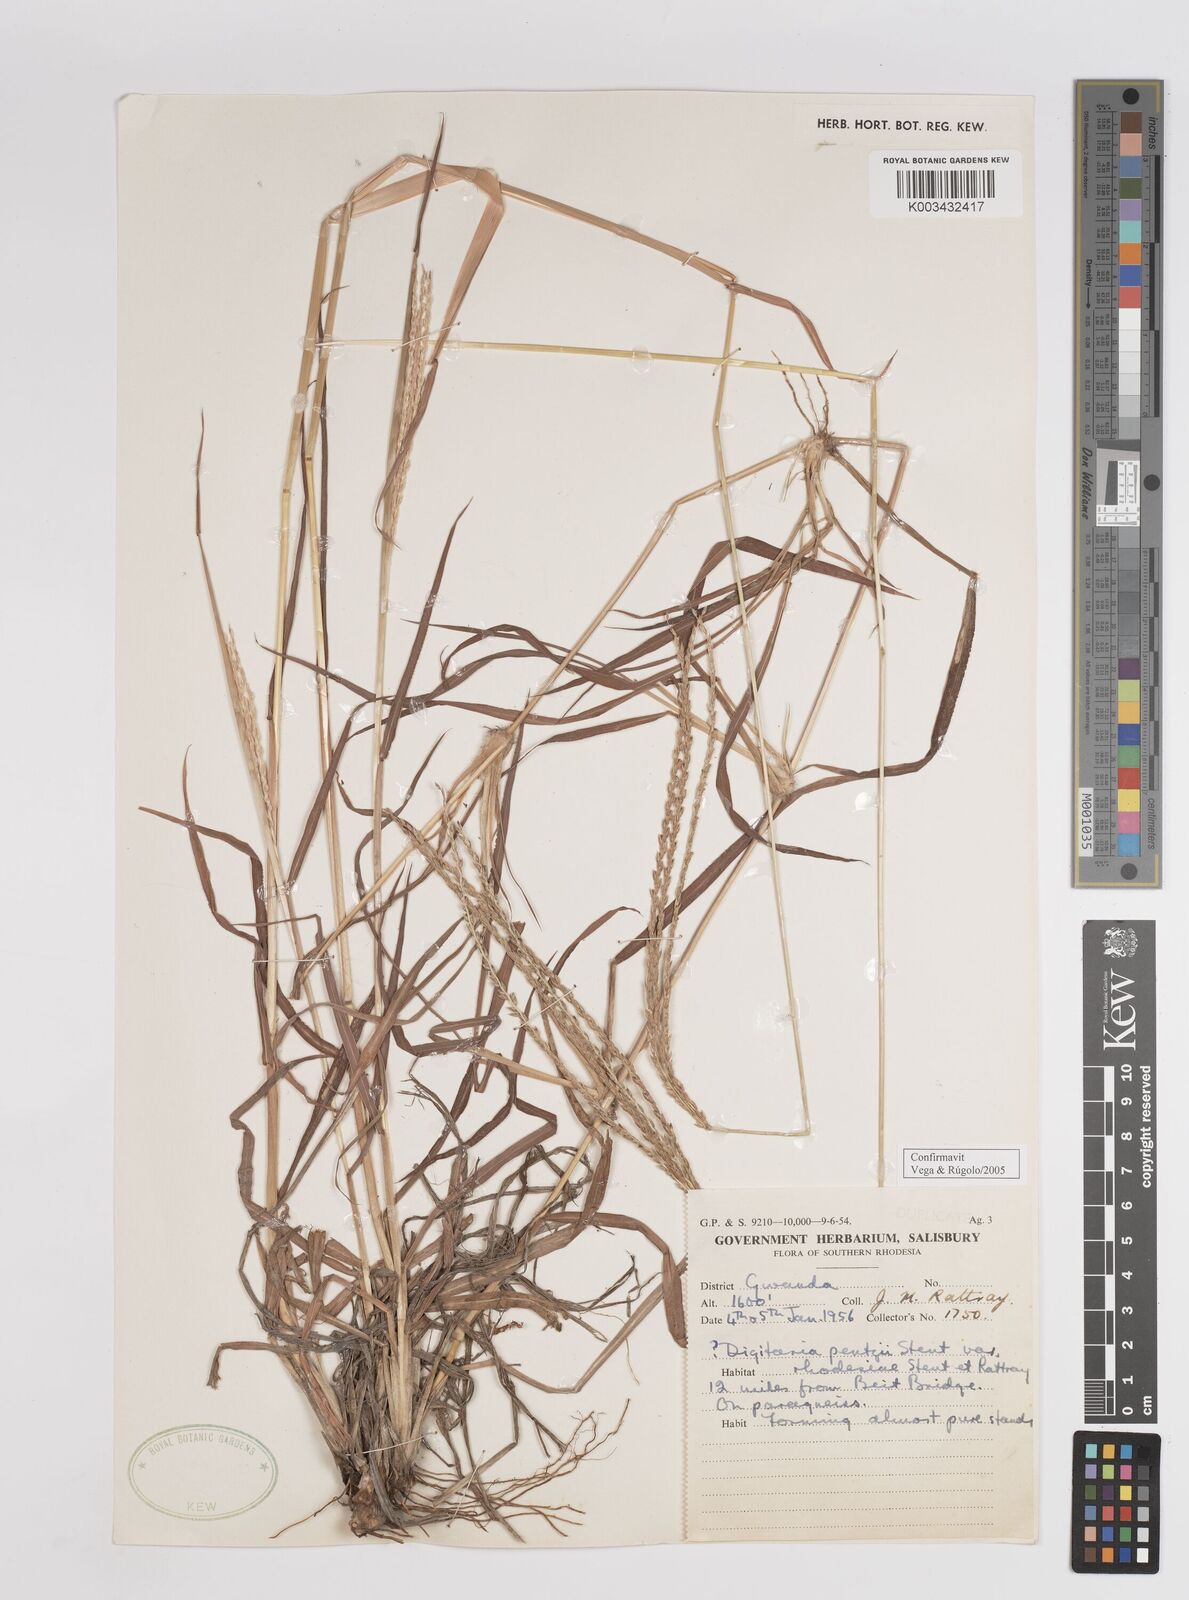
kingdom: Plantae
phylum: Tracheophyta
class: Liliopsida
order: Poales
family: Poaceae
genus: Digitaria
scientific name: Digitaria eriantha
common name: Digitgrass
